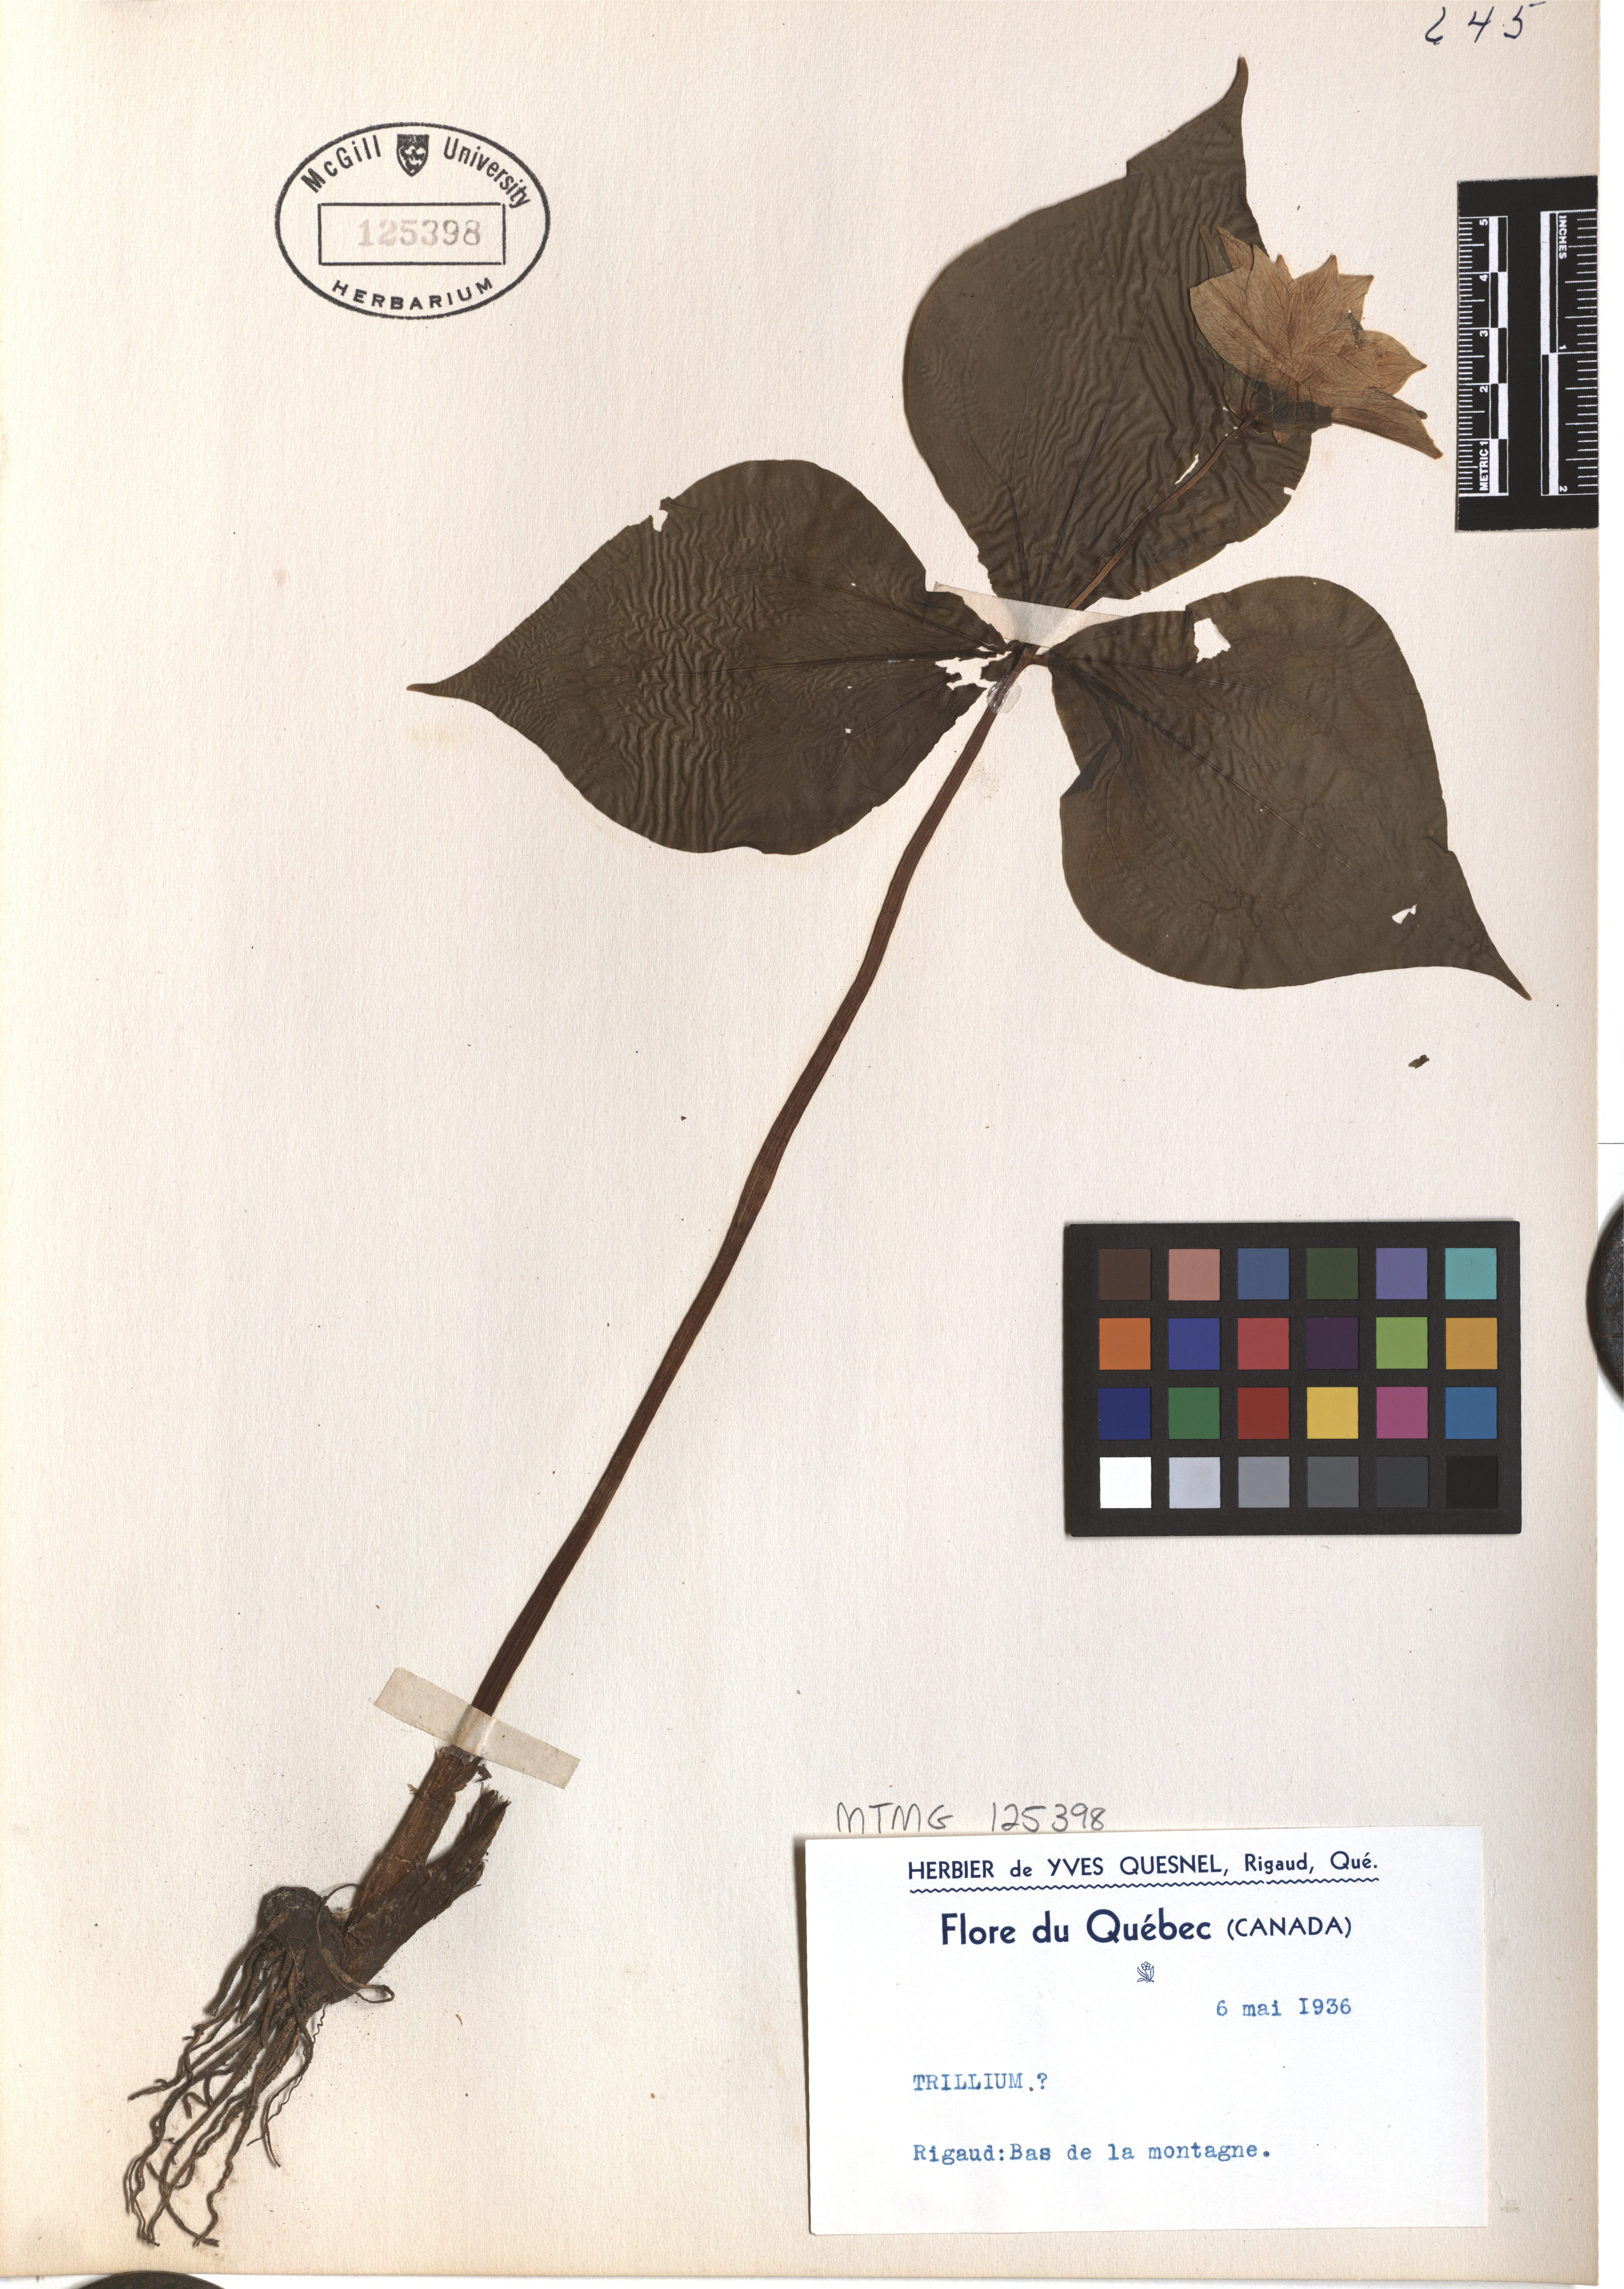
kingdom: Plantae
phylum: Tracheophyta
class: Liliopsida
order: Liliales
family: Melanthiaceae
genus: Trillium
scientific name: Trillium
